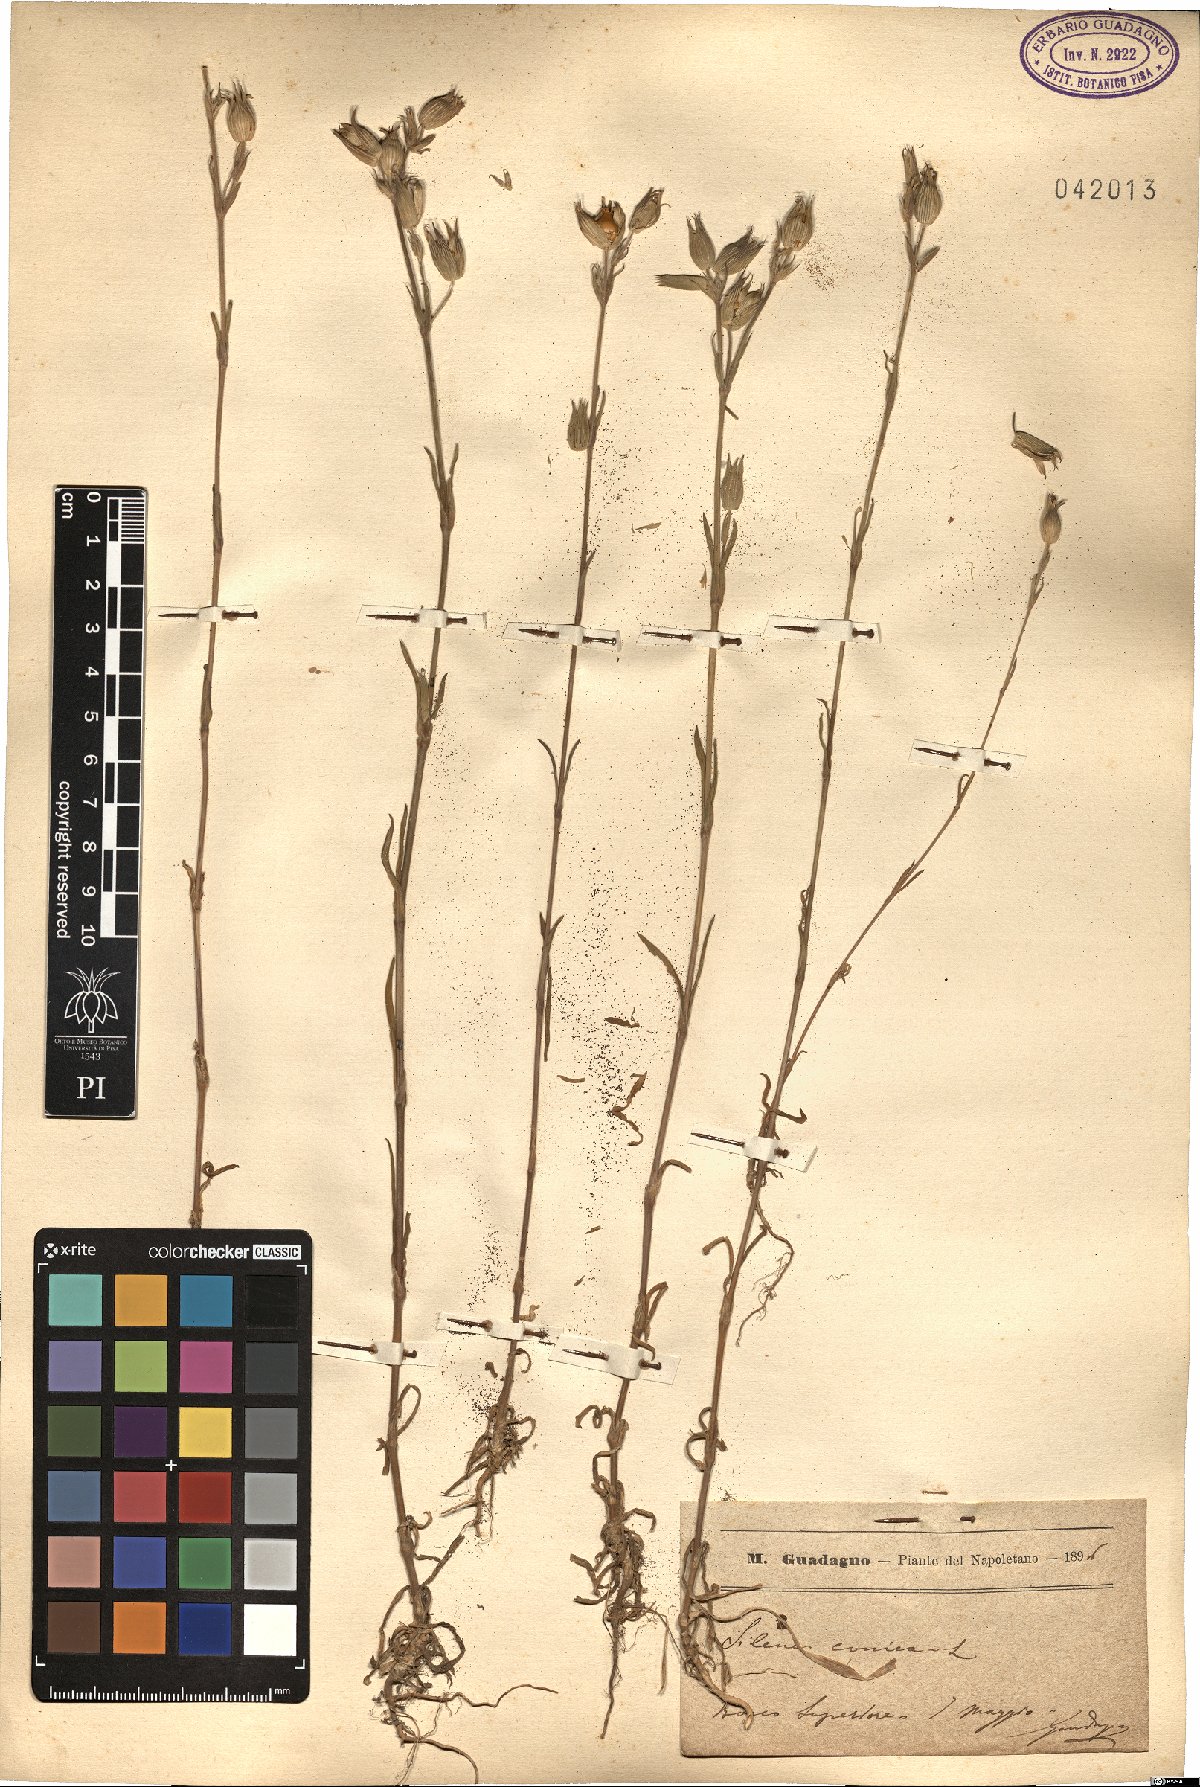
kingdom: Plantae
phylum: Tracheophyta
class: Magnoliopsida
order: Caryophyllales
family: Caryophyllaceae
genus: Silene
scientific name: Silene conica
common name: Sand catchfly
